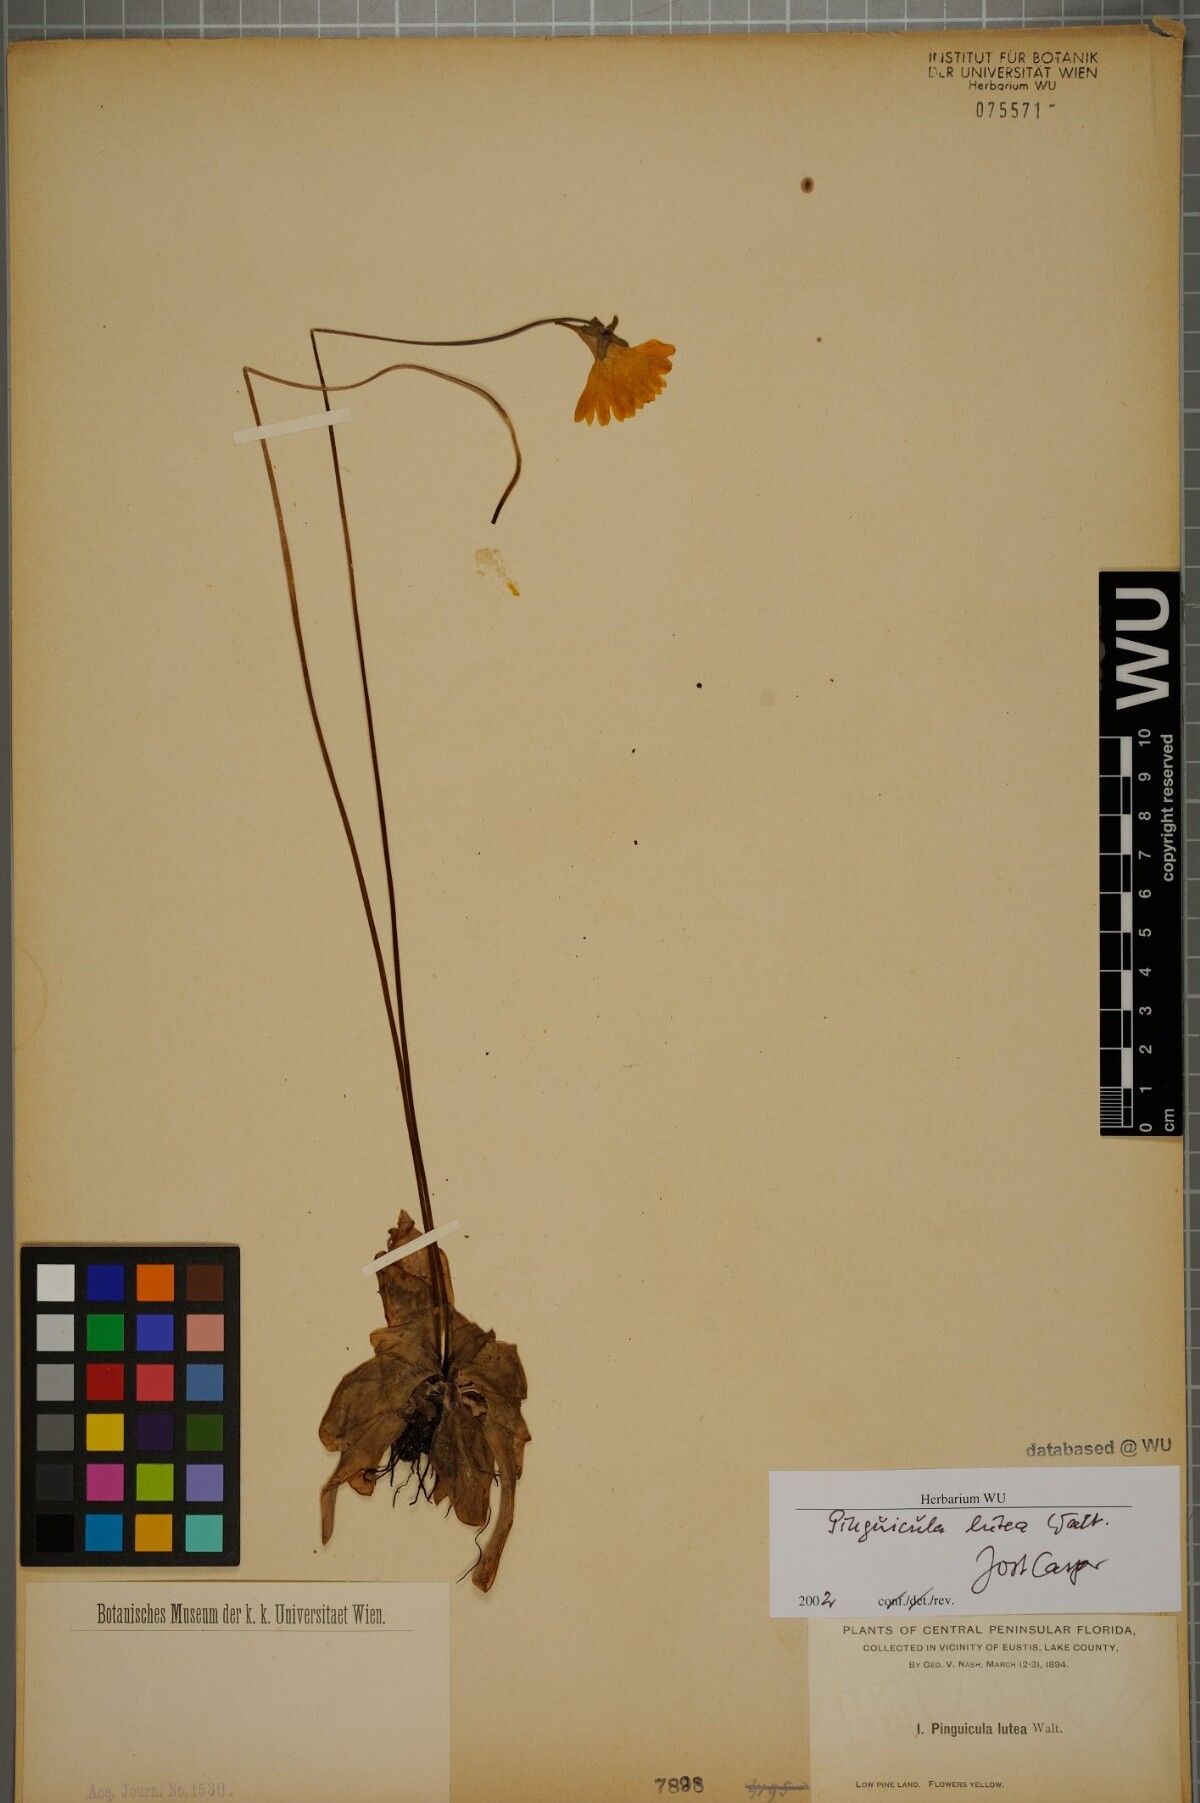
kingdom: Plantae
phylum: Tracheophyta
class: Magnoliopsida
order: Lamiales
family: Lentibulariaceae
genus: Pinguicula
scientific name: Pinguicula lutea
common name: Yellow butterwort
